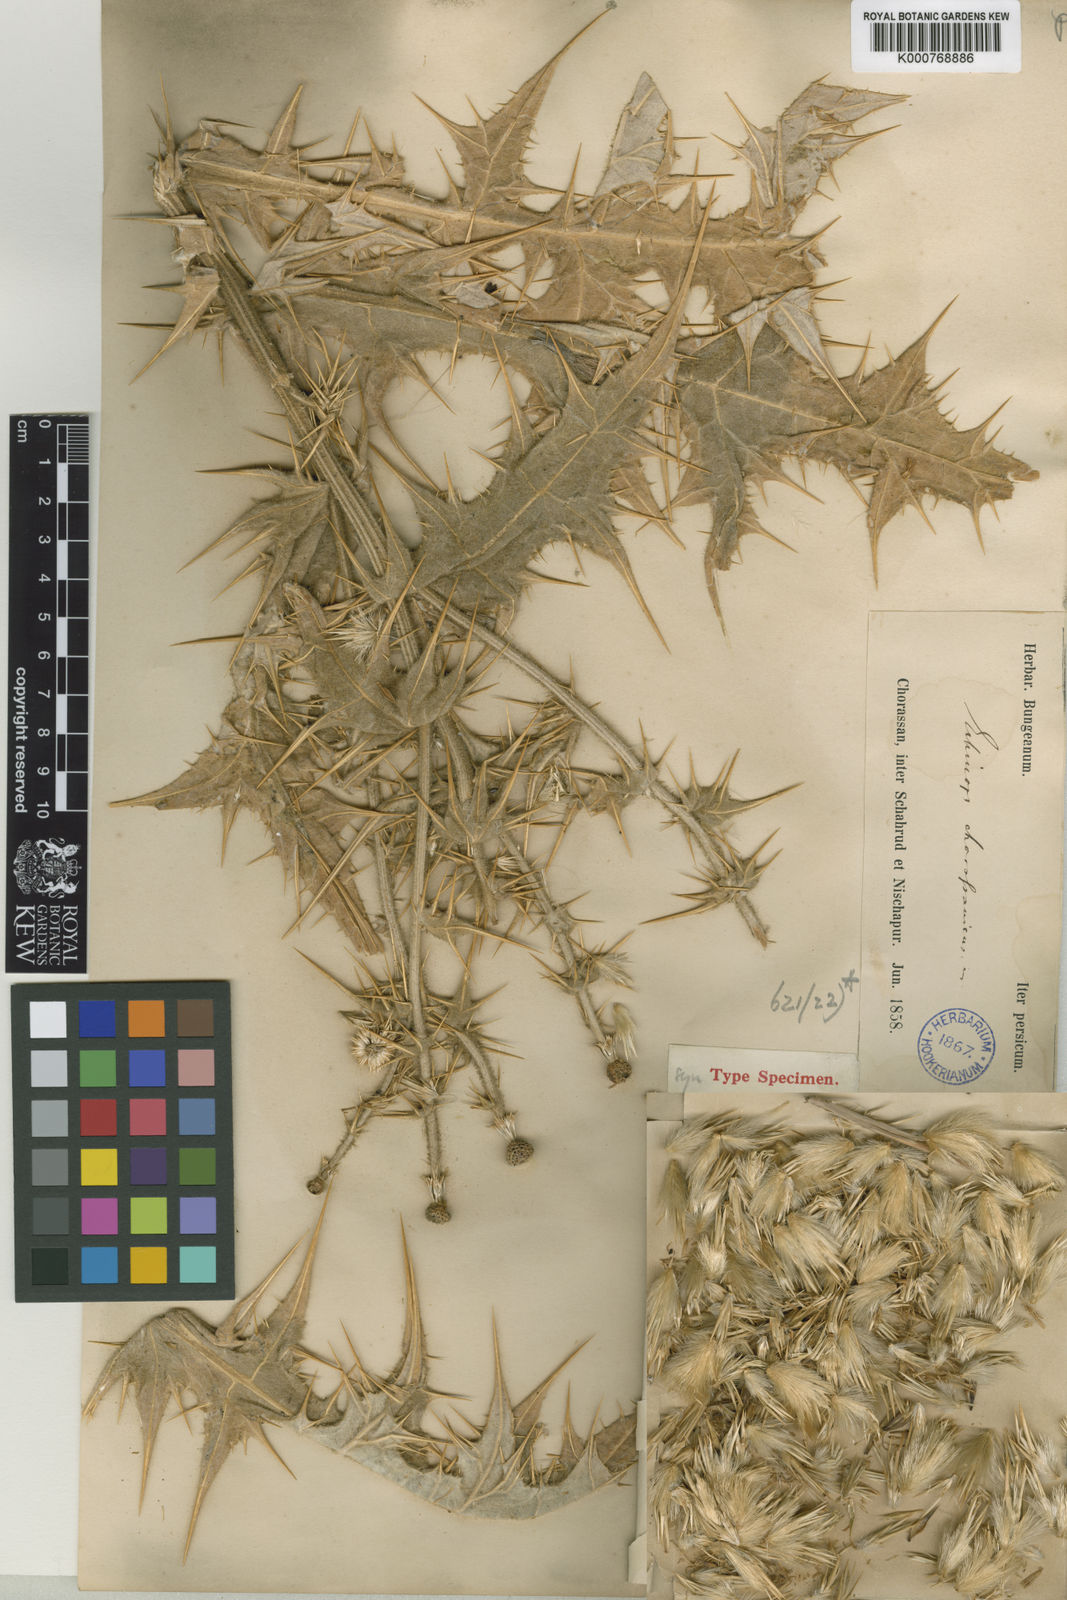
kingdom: Plantae
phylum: Tracheophyta
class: Magnoliopsida
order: Asterales
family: Asteraceae
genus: Echinops
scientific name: Echinops chorassanicus
